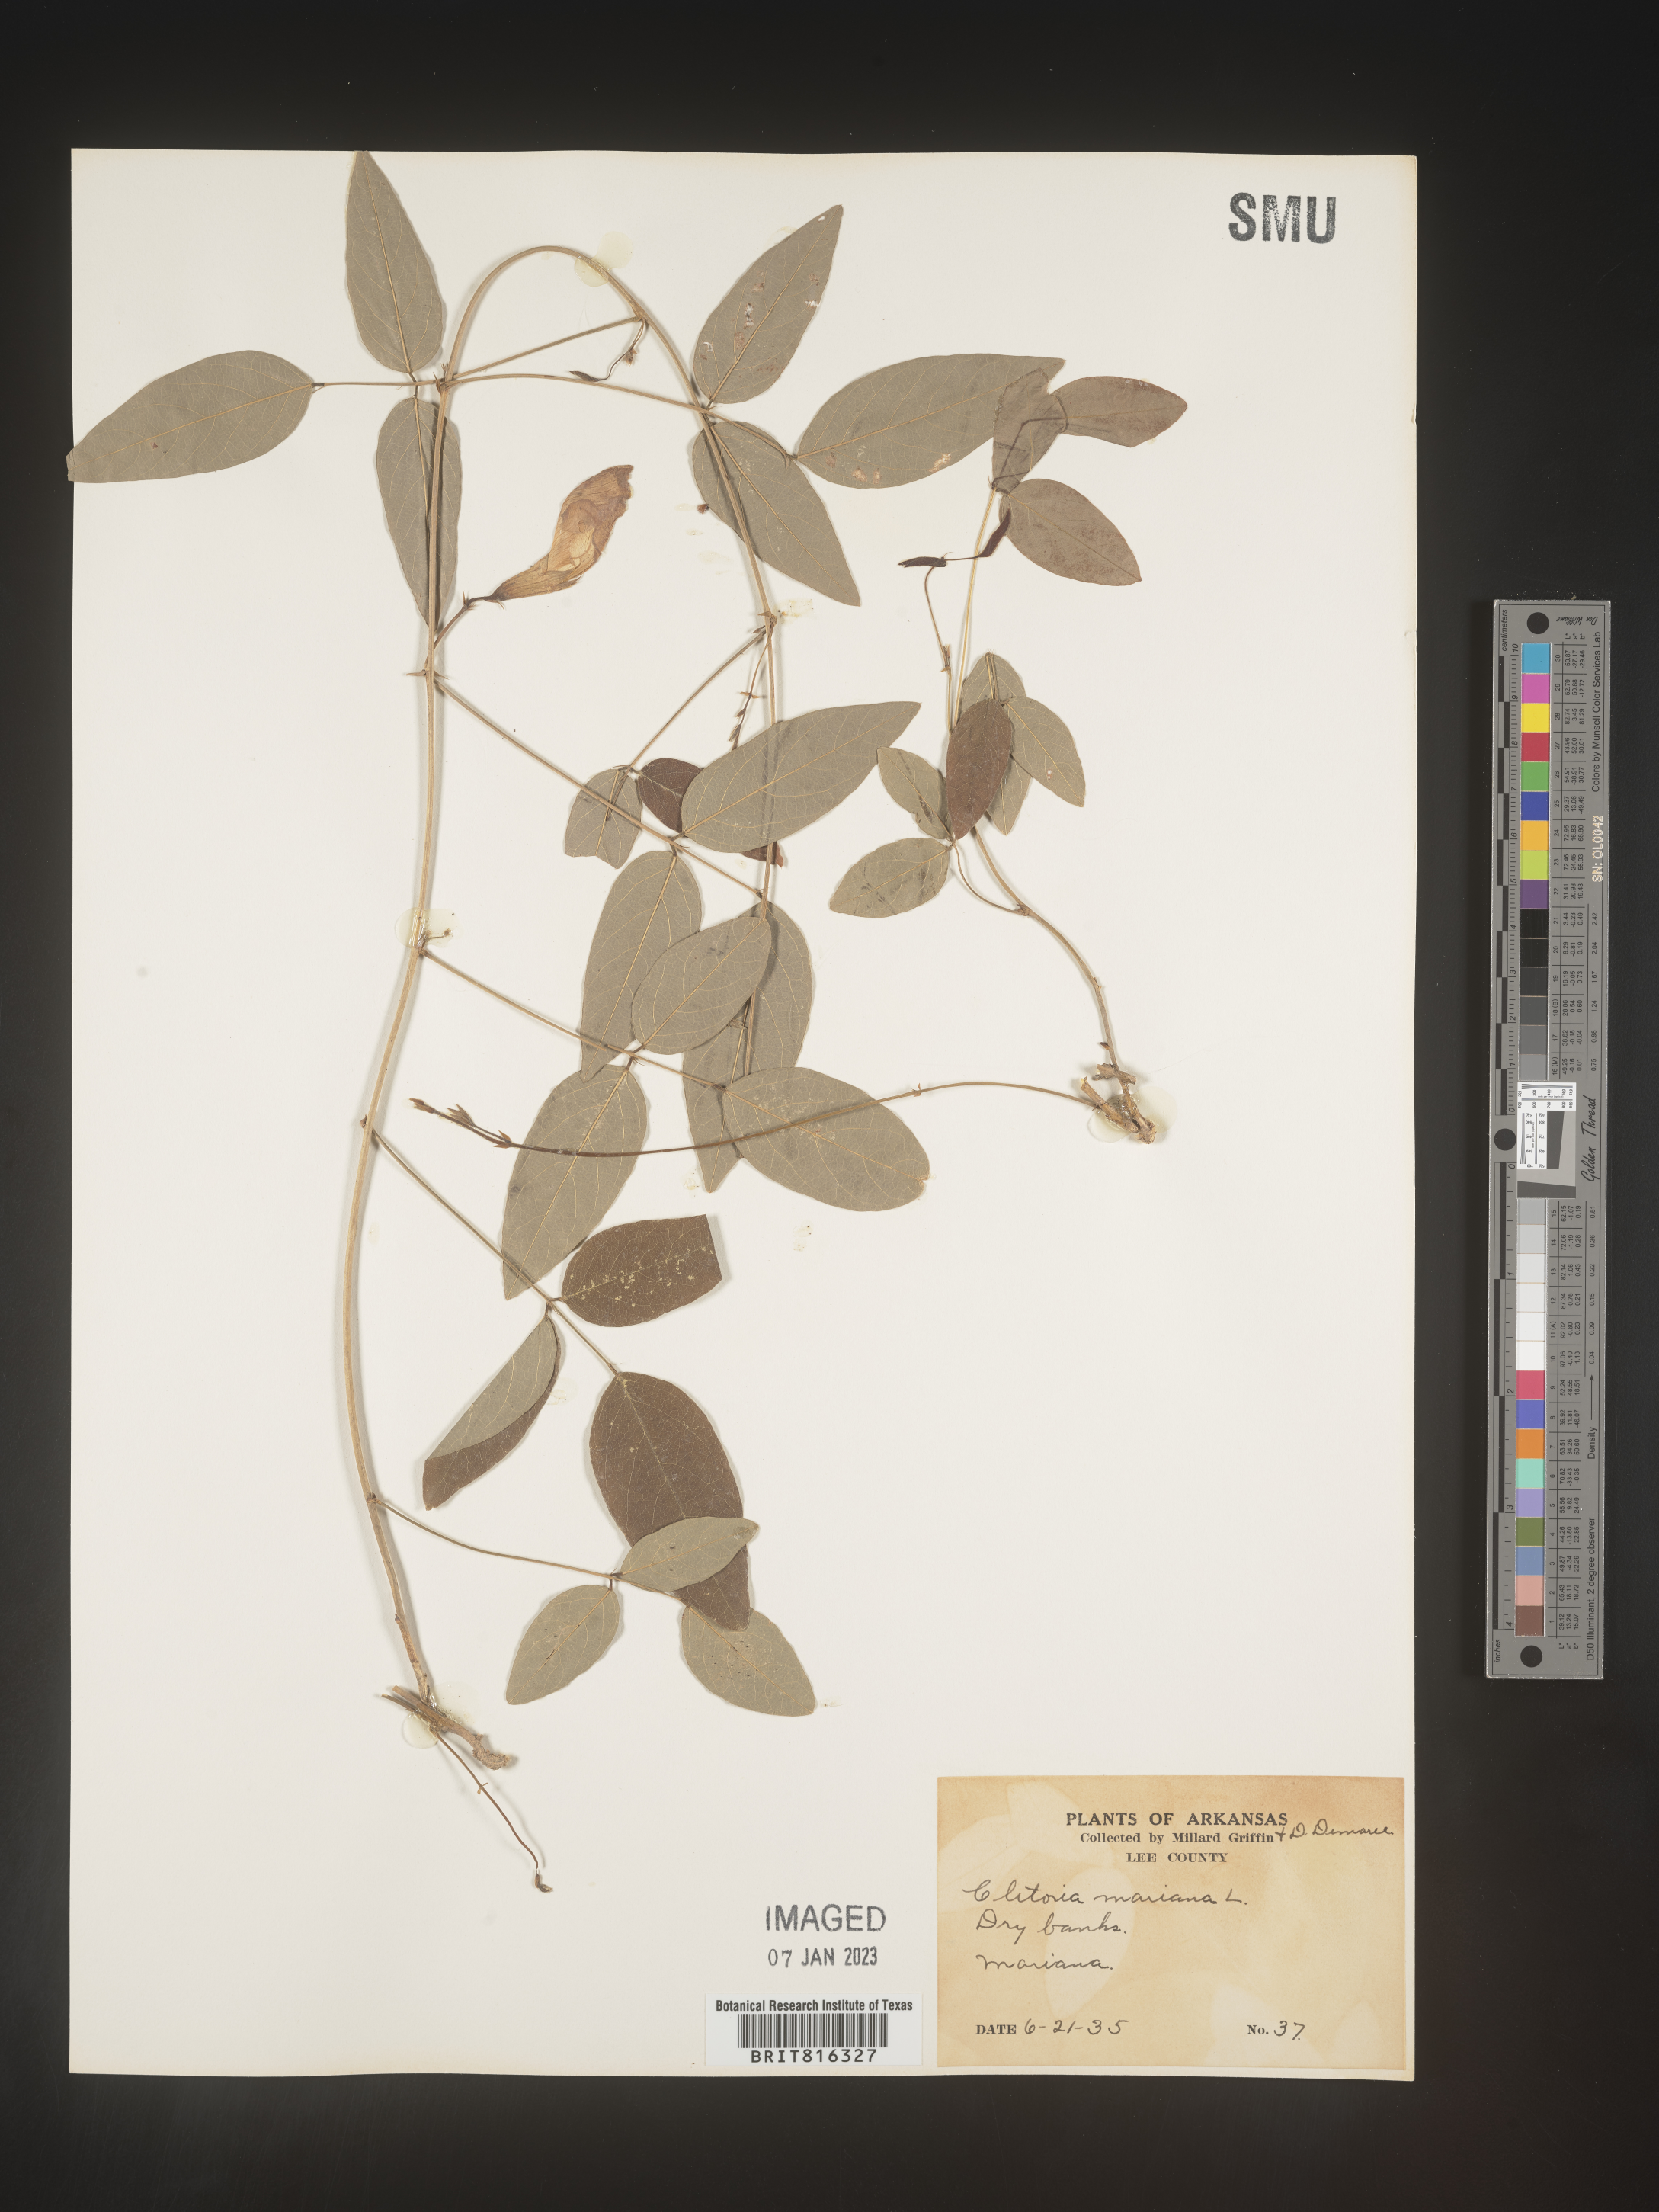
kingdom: Plantae
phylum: Tracheophyta
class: Magnoliopsida
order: Fabales
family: Fabaceae
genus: Clitoria
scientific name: Clitoria mariana
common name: Butterfly-pea
